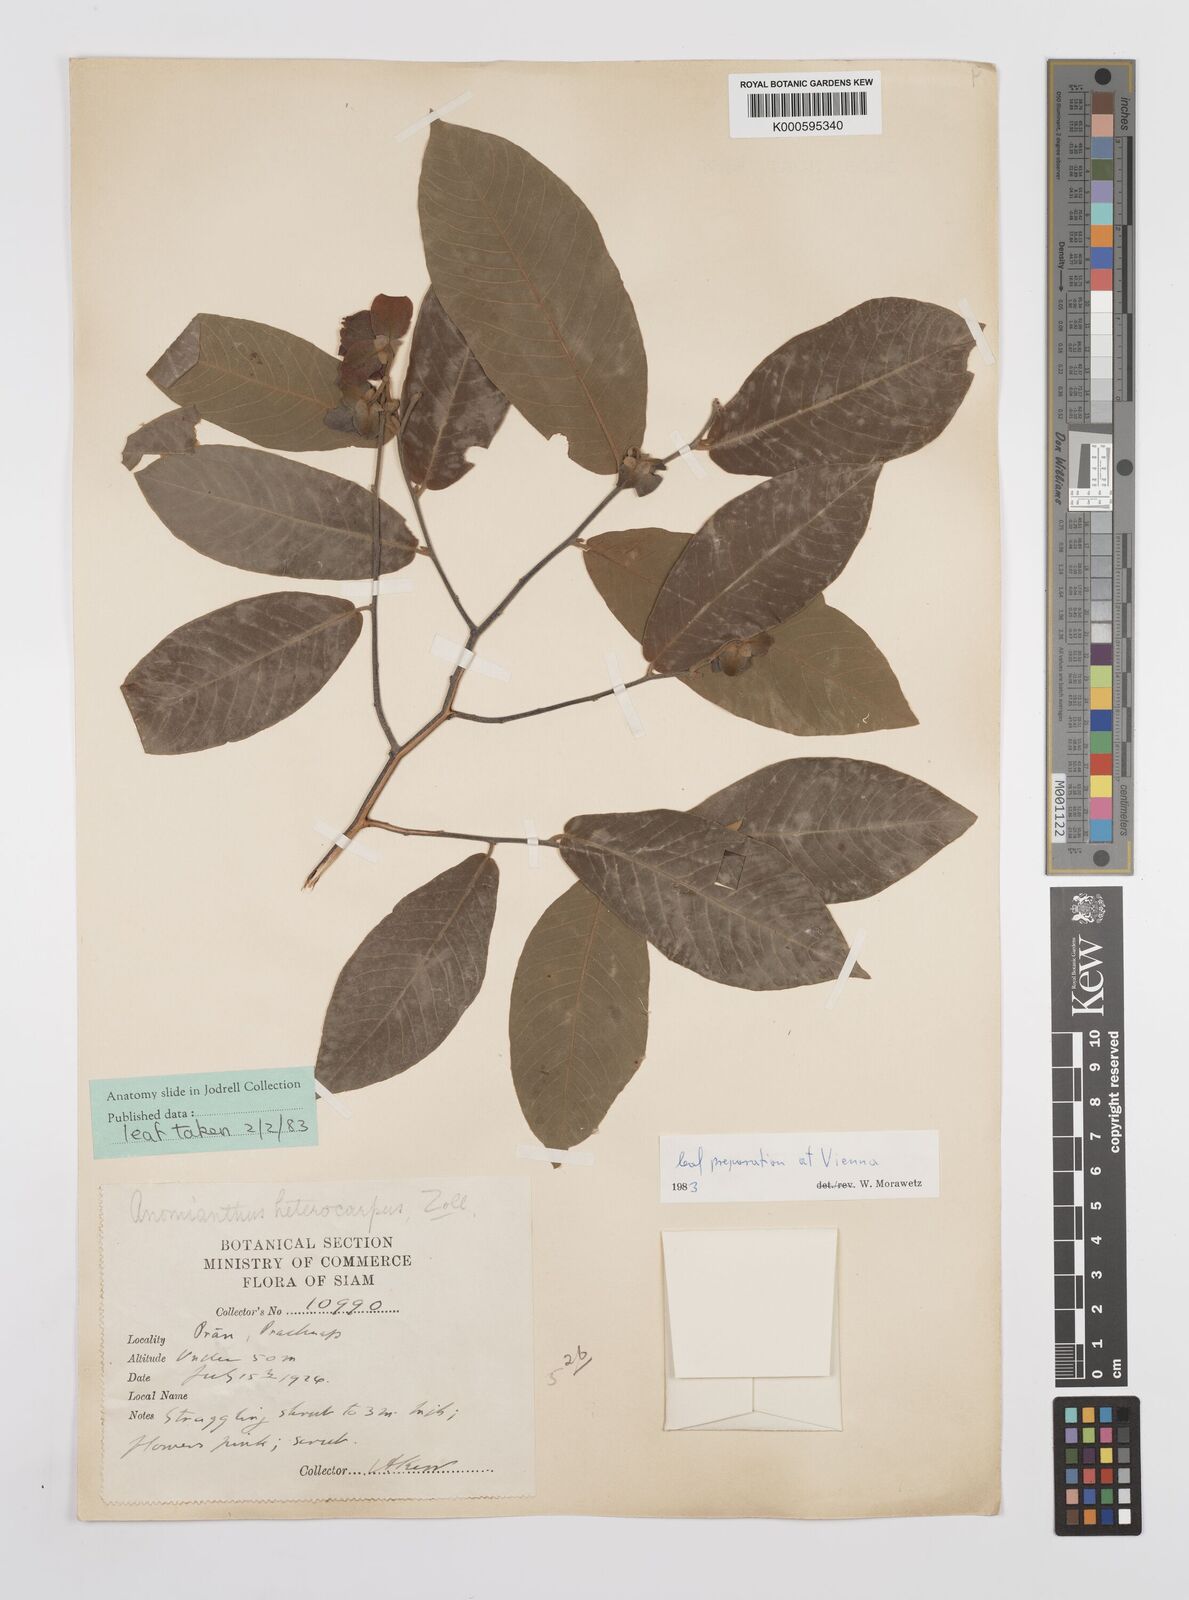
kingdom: Plantae
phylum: Tracheophyta
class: Magnoliopsida
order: Magnoliales
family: Annonaceae
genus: Anomianthus
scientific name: Anomianthus heterocarpus
